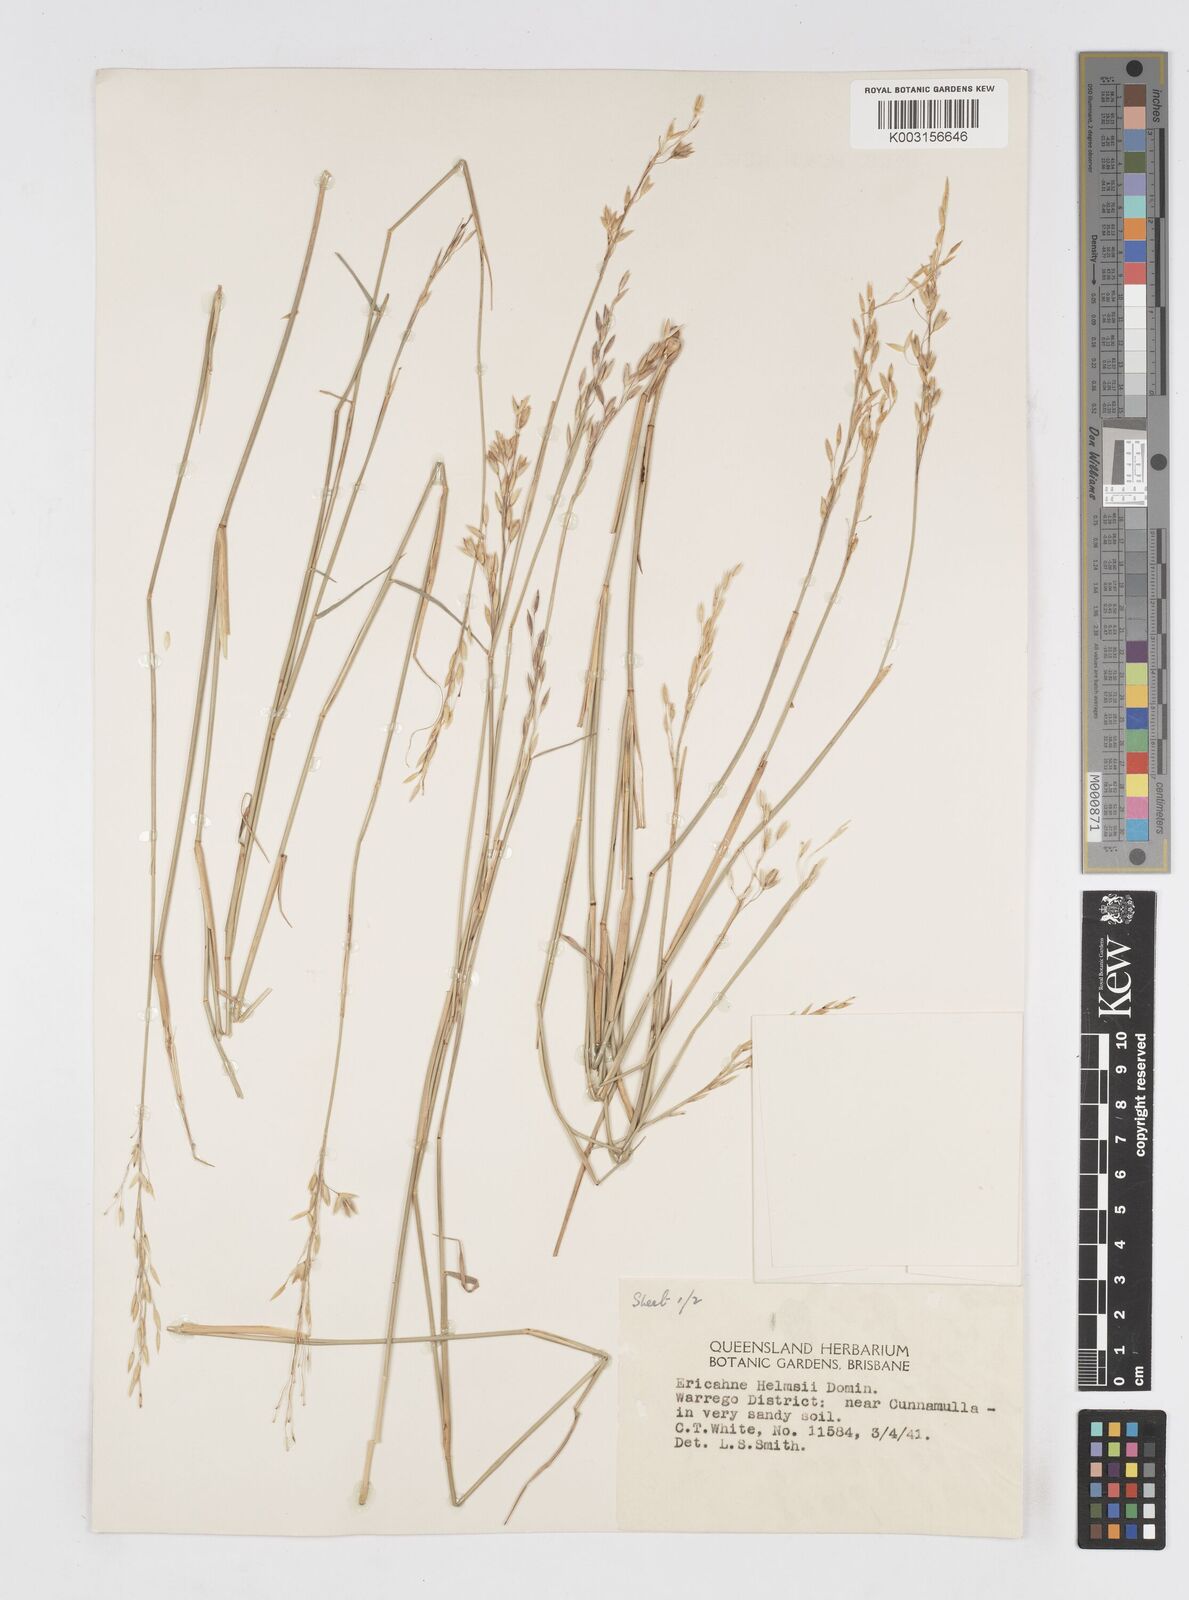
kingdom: Plantae
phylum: Tracheophyta
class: Liliopsida
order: Poales
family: Poaceae
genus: Eriachne
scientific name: Eriachne helmsii
